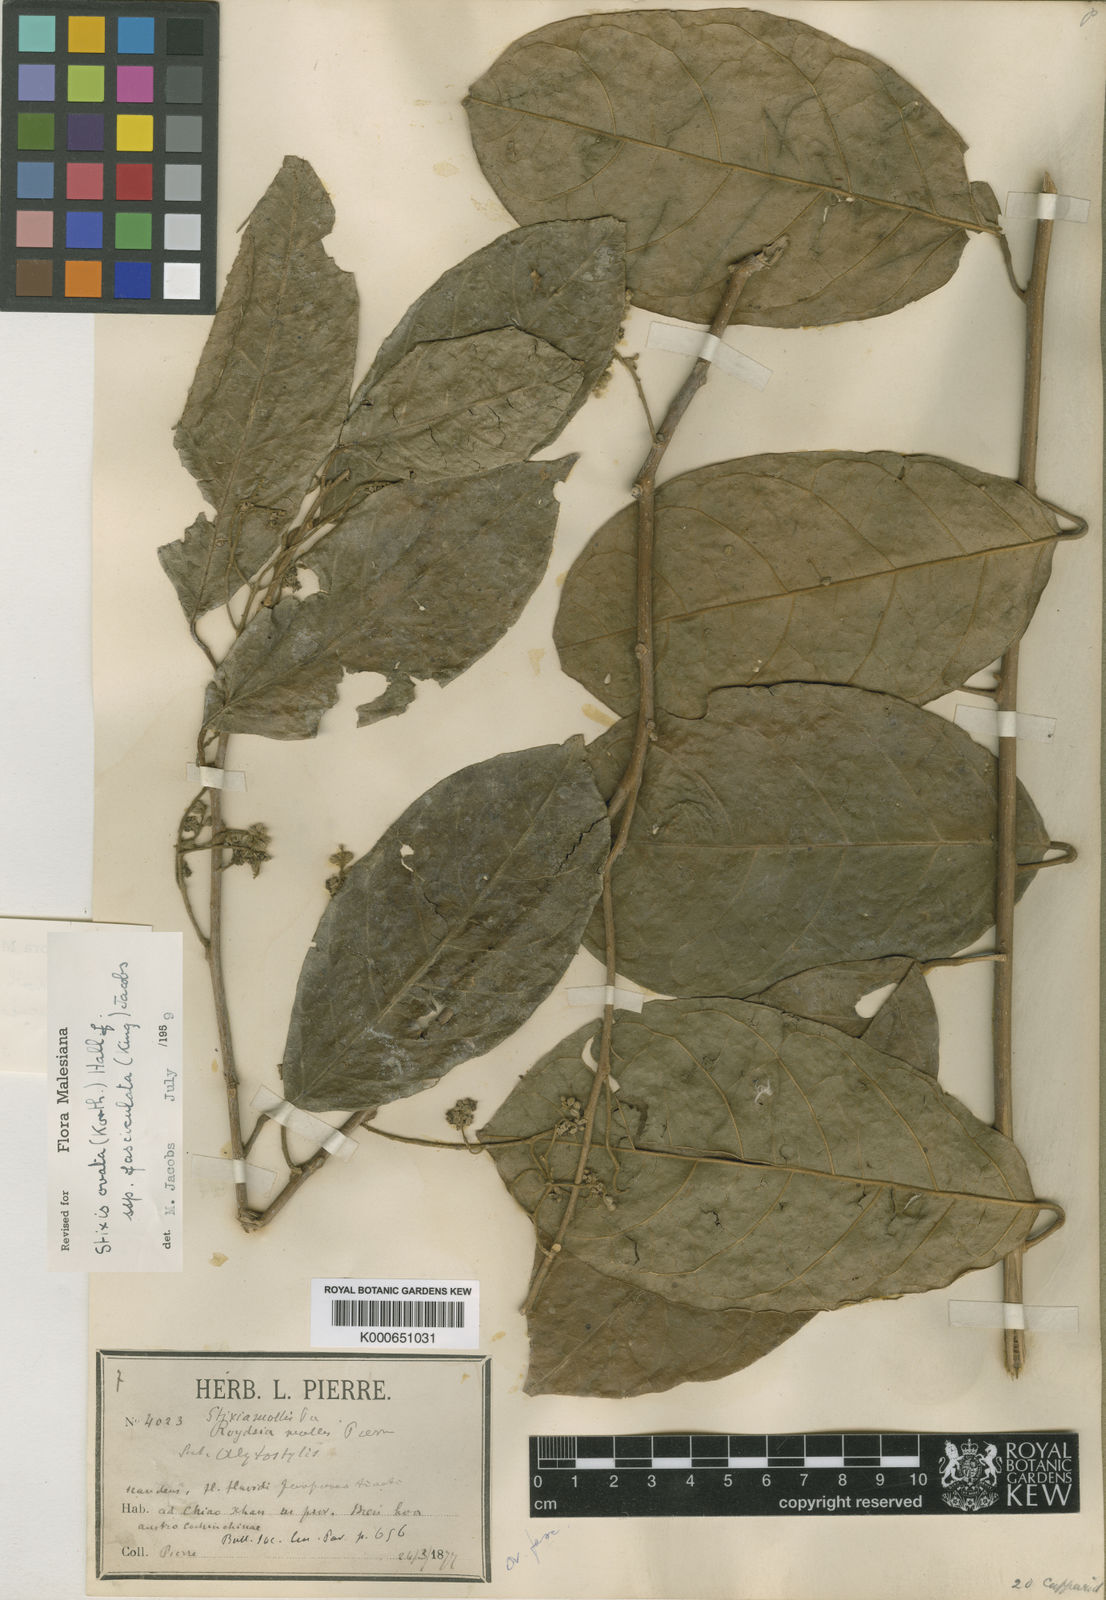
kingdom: Plantae
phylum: Tracheophyta
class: Magnoliopsida
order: Brassicales
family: Stixaceae
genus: Stixis
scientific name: Stixis ovata
